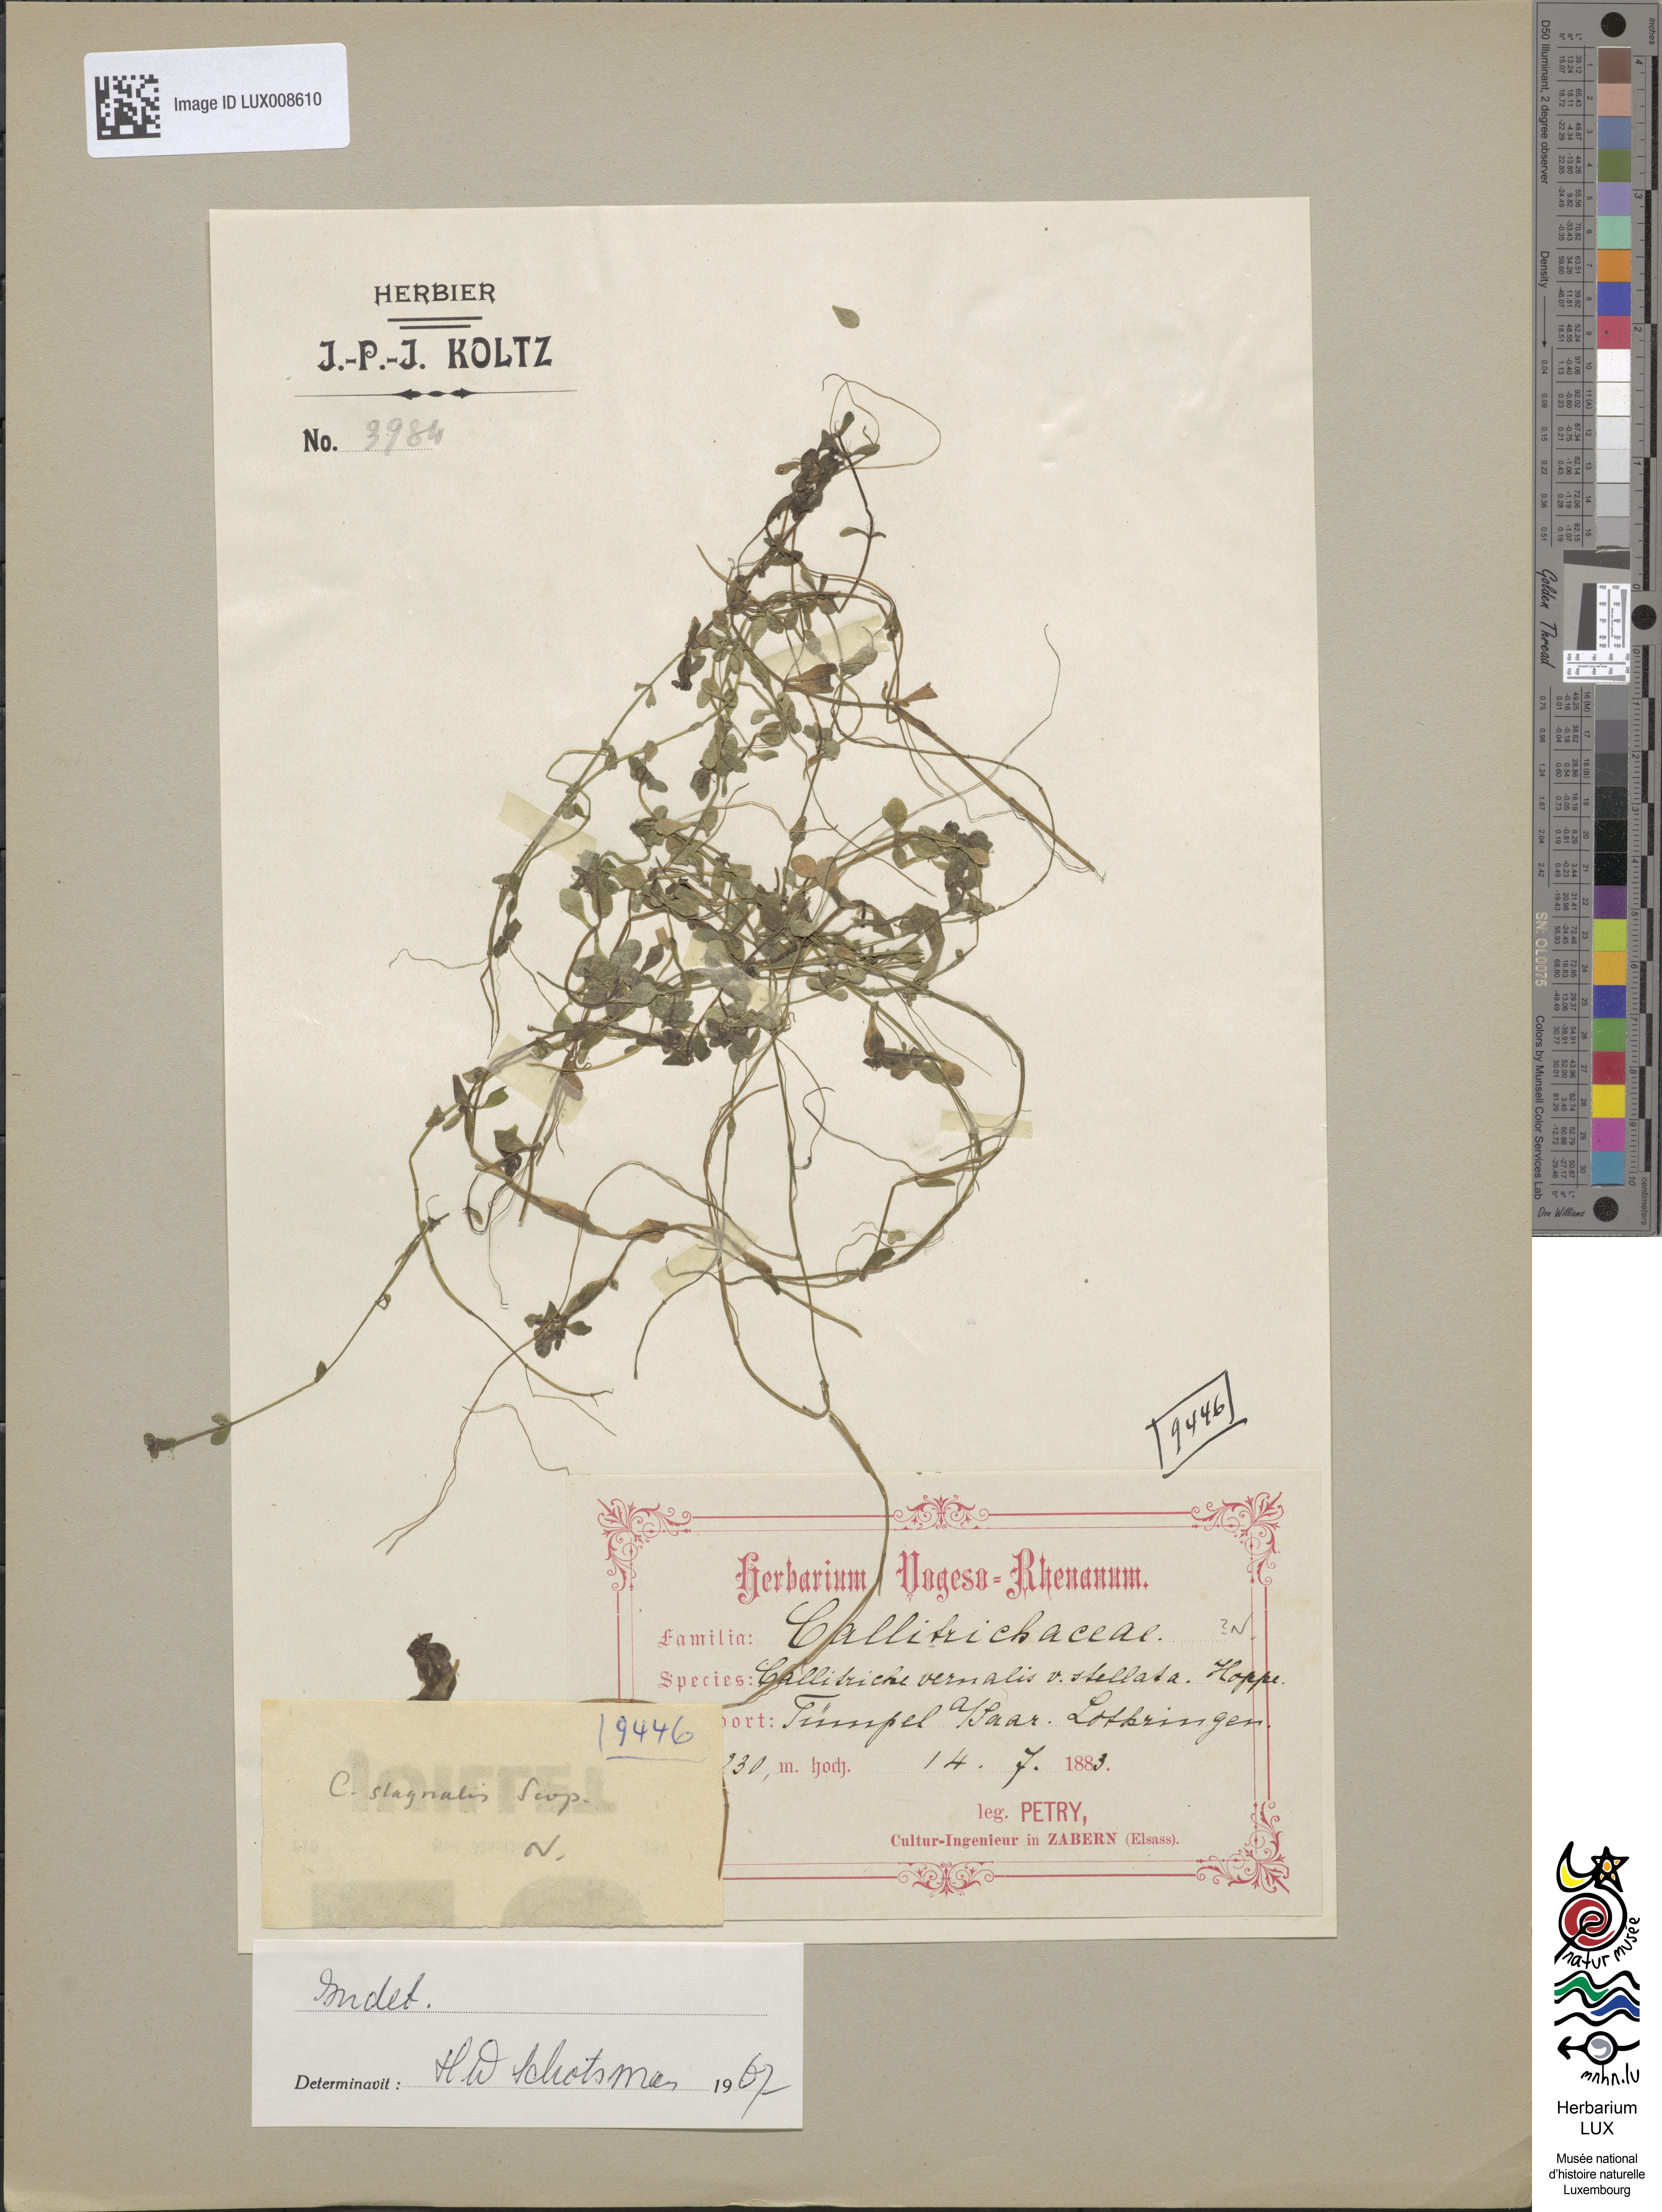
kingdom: Plantae
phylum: Tracheophyta
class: Magnoliopsida
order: Lamiales
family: Plantaginaceae
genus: Callitriche
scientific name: Callitriche palustris
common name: Spring water-starwort
